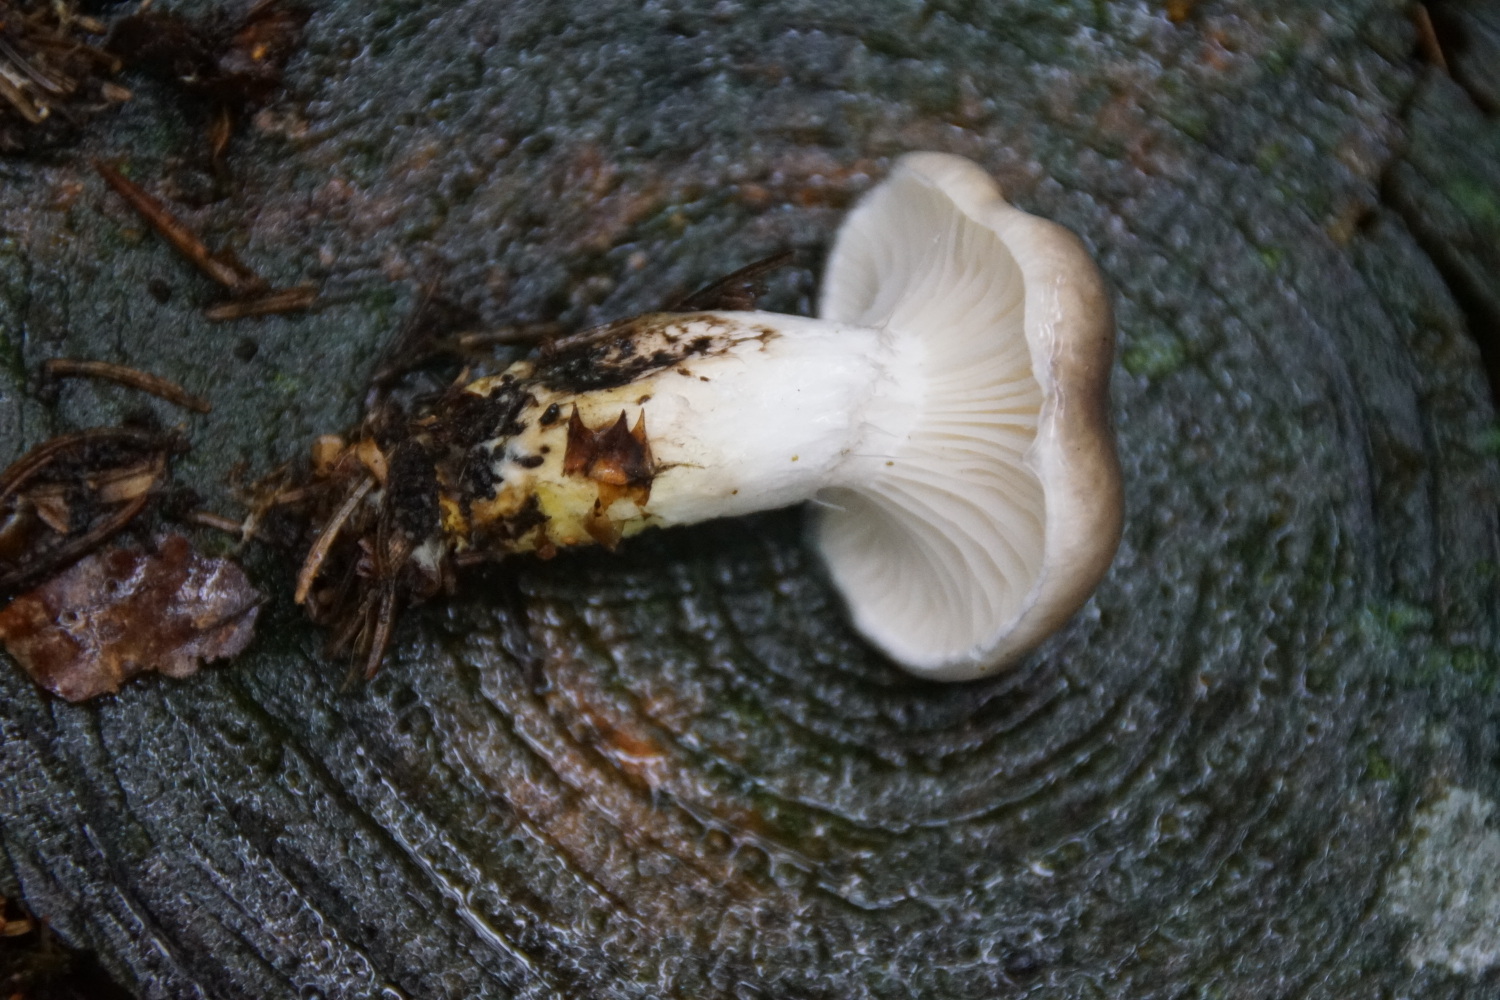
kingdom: Fungi
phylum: Basidiomycota
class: Agaricomycetes
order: Boletales
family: Gomphidiaceae
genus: Gomphidius
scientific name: Gomphidius glutinosus
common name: grå slimslør
